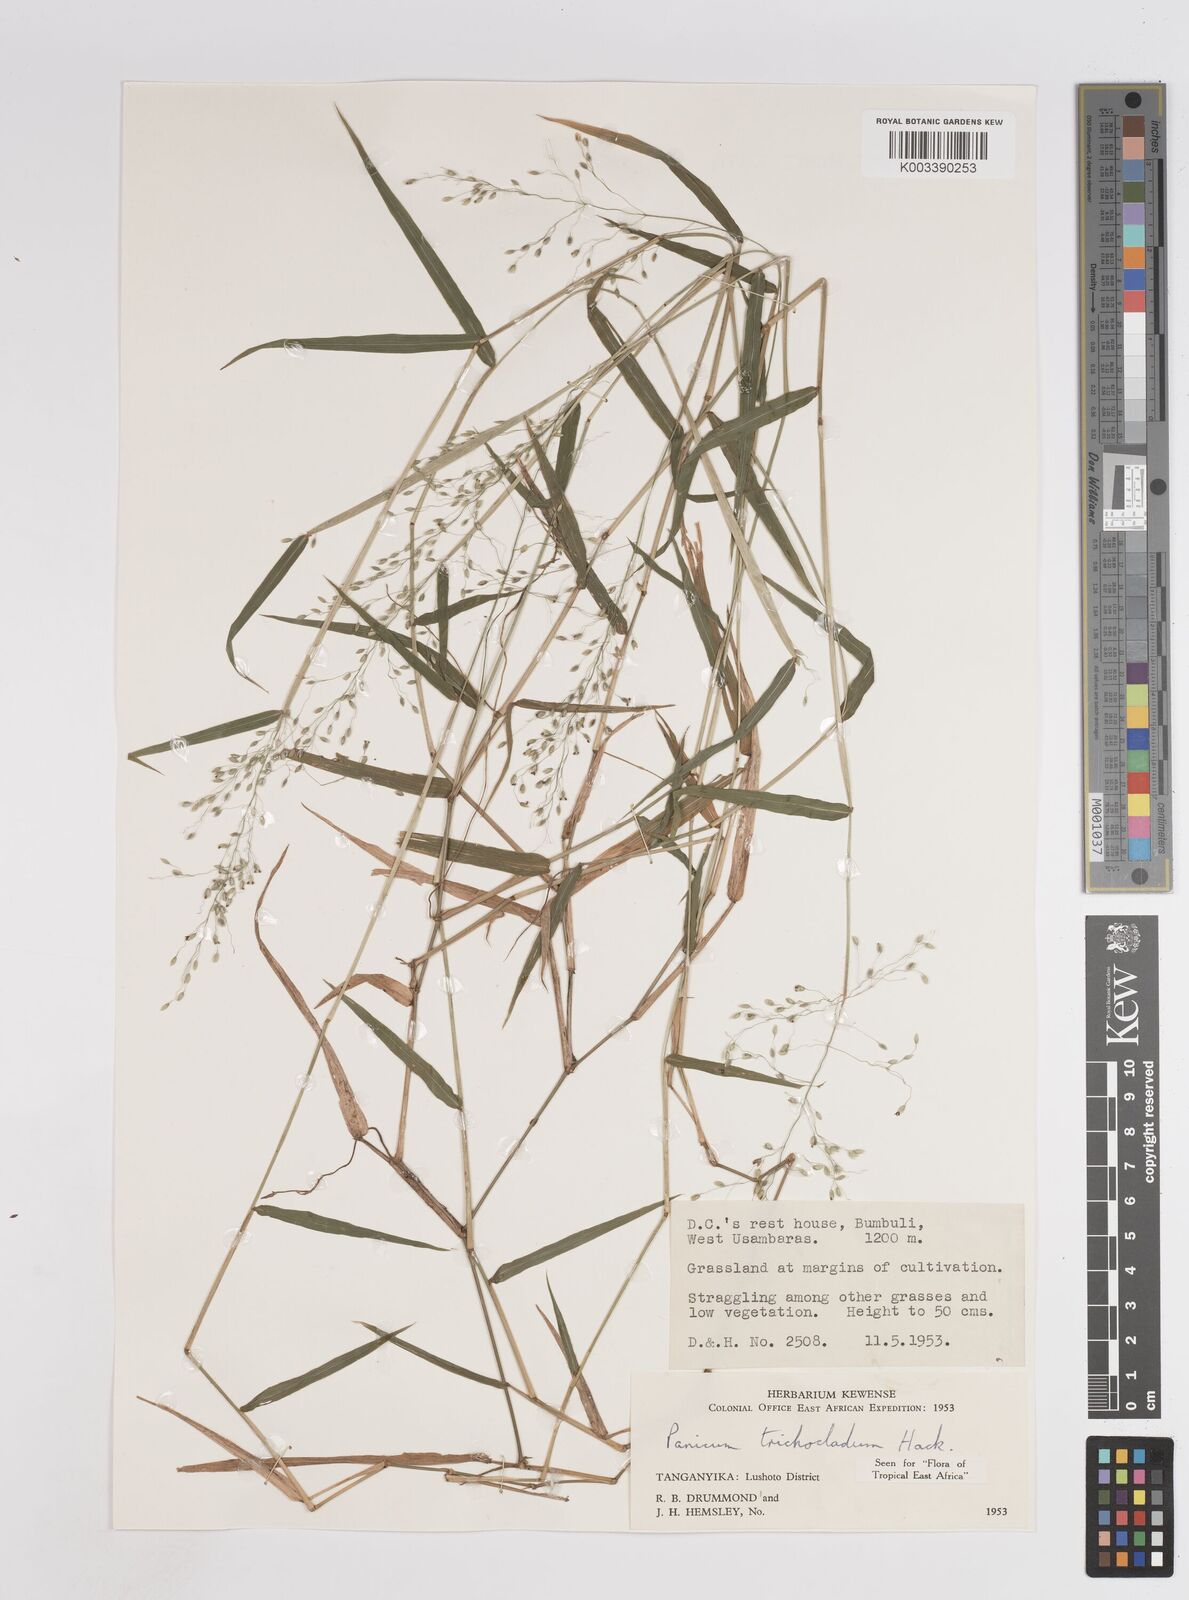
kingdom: Plantae
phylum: Tracheophyta
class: Liliopsida
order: Poales
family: Poaceae
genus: Panicum
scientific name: Panicum trichocladum
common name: Donkey grass
